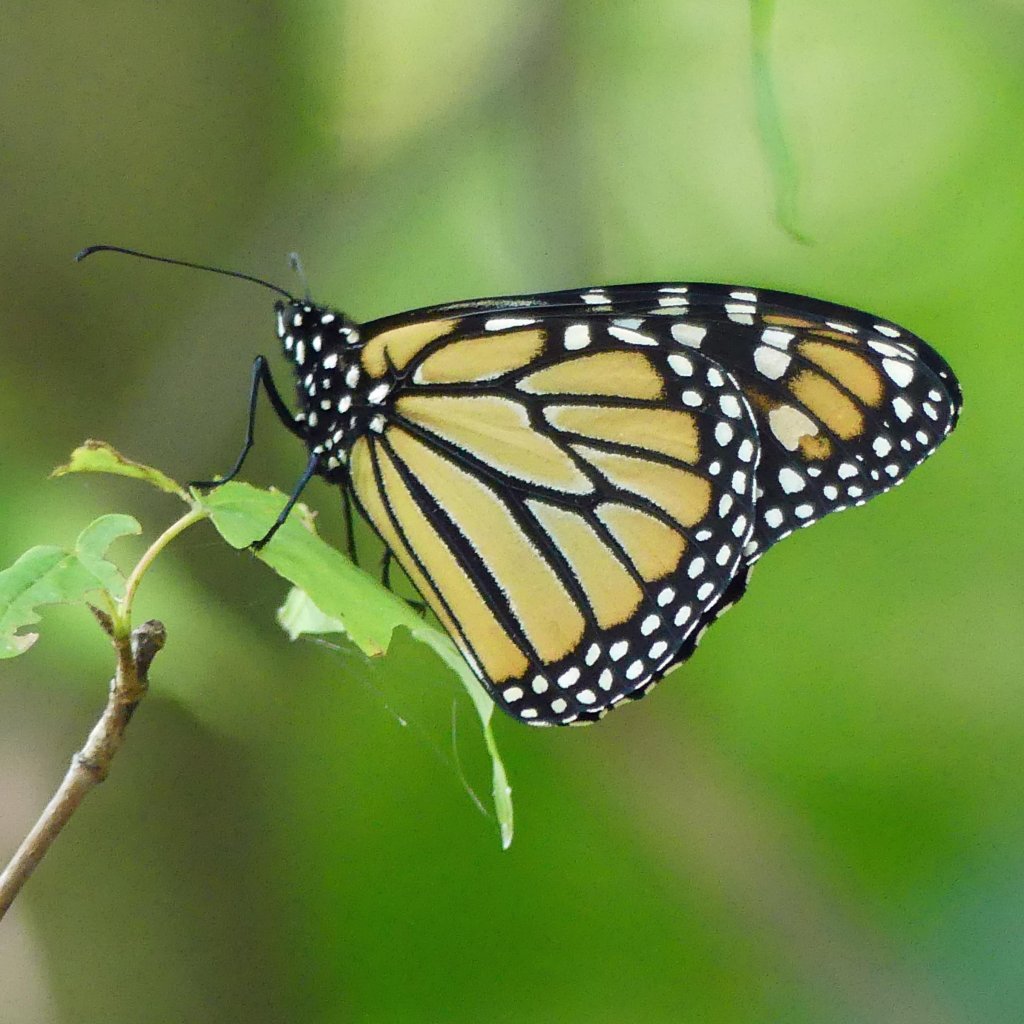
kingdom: Animalia
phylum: Arthropoda
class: Insecta
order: Lepidoptera
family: Nymphalidae
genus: Danaus
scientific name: Danaus plexippus
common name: Monarch
